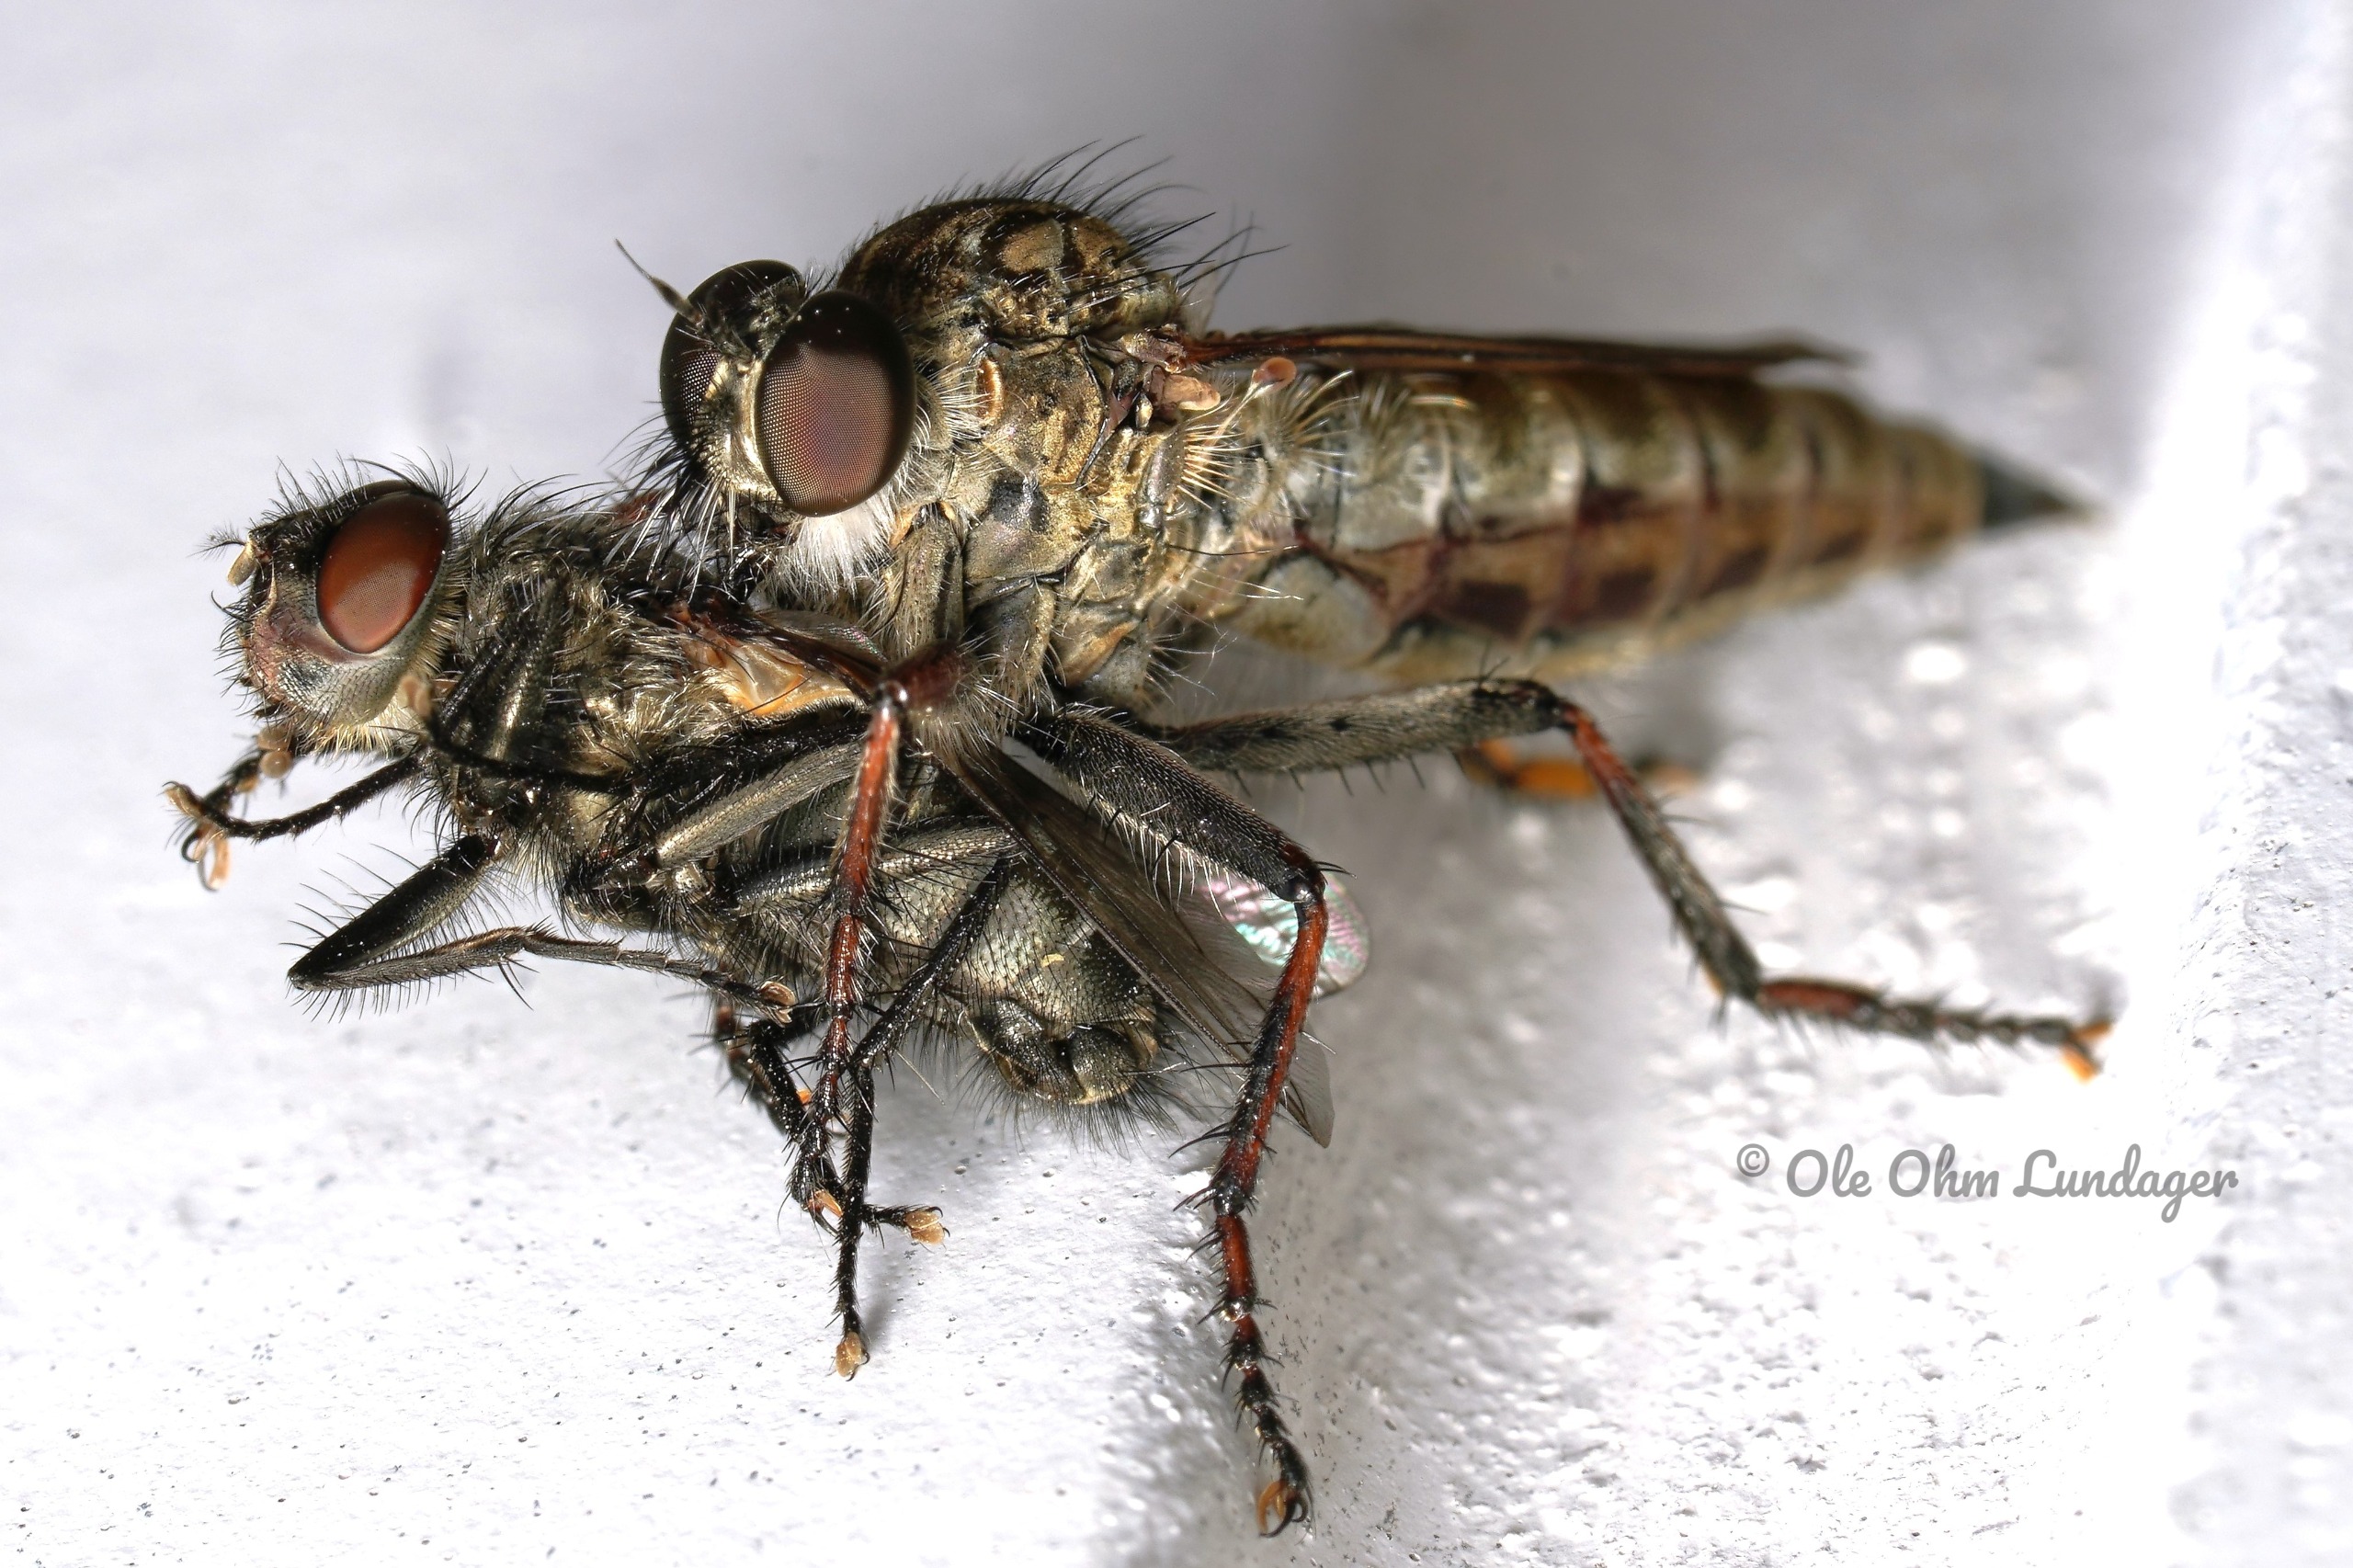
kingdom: Animalia
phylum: Arthropoda
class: Insecta
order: Diptera
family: Asilidae
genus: Machimus
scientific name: Machimus atricapillus
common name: Sort hårrovflue
